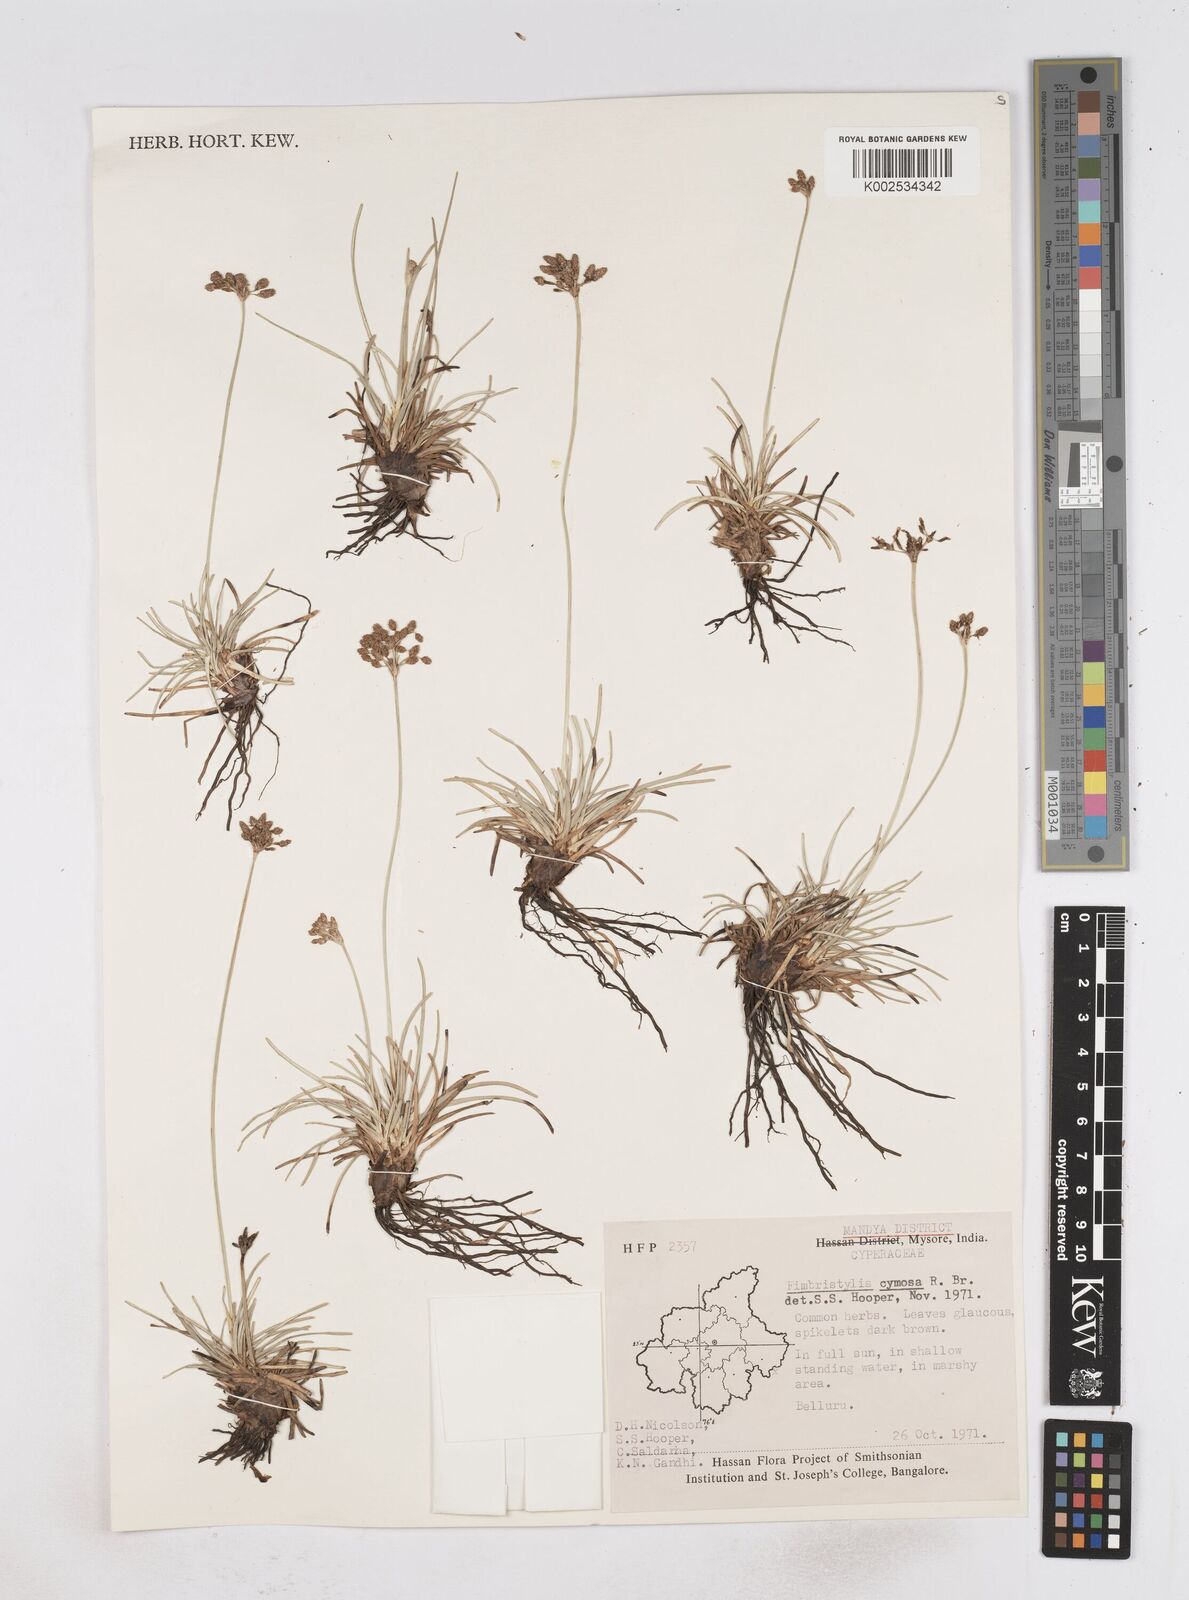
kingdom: Plantae
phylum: Tracheophyta
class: Liliopsida
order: Poales
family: Cyperaceae
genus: Fimbristylis
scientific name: Fimbristylis cymosa
